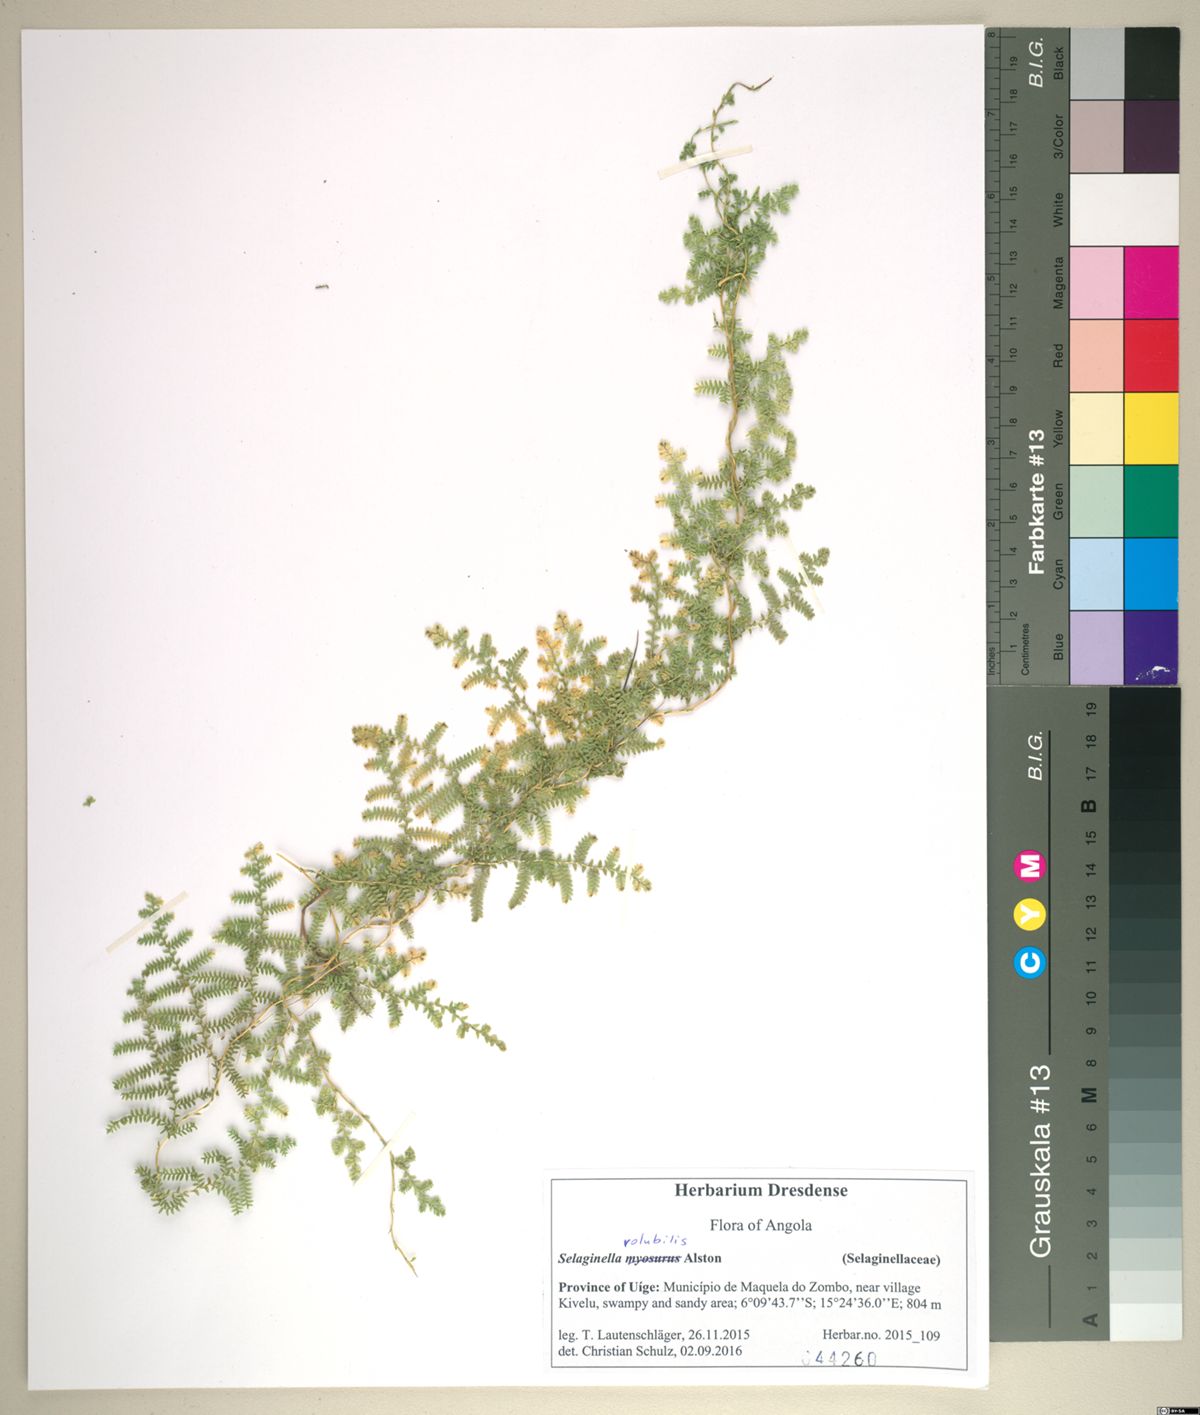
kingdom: Plantae
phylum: Tracheophyta
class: Lycopodiopsida
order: Selaginellales
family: Selaginellaceae
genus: Selaginella
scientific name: Selaginella volubilis
